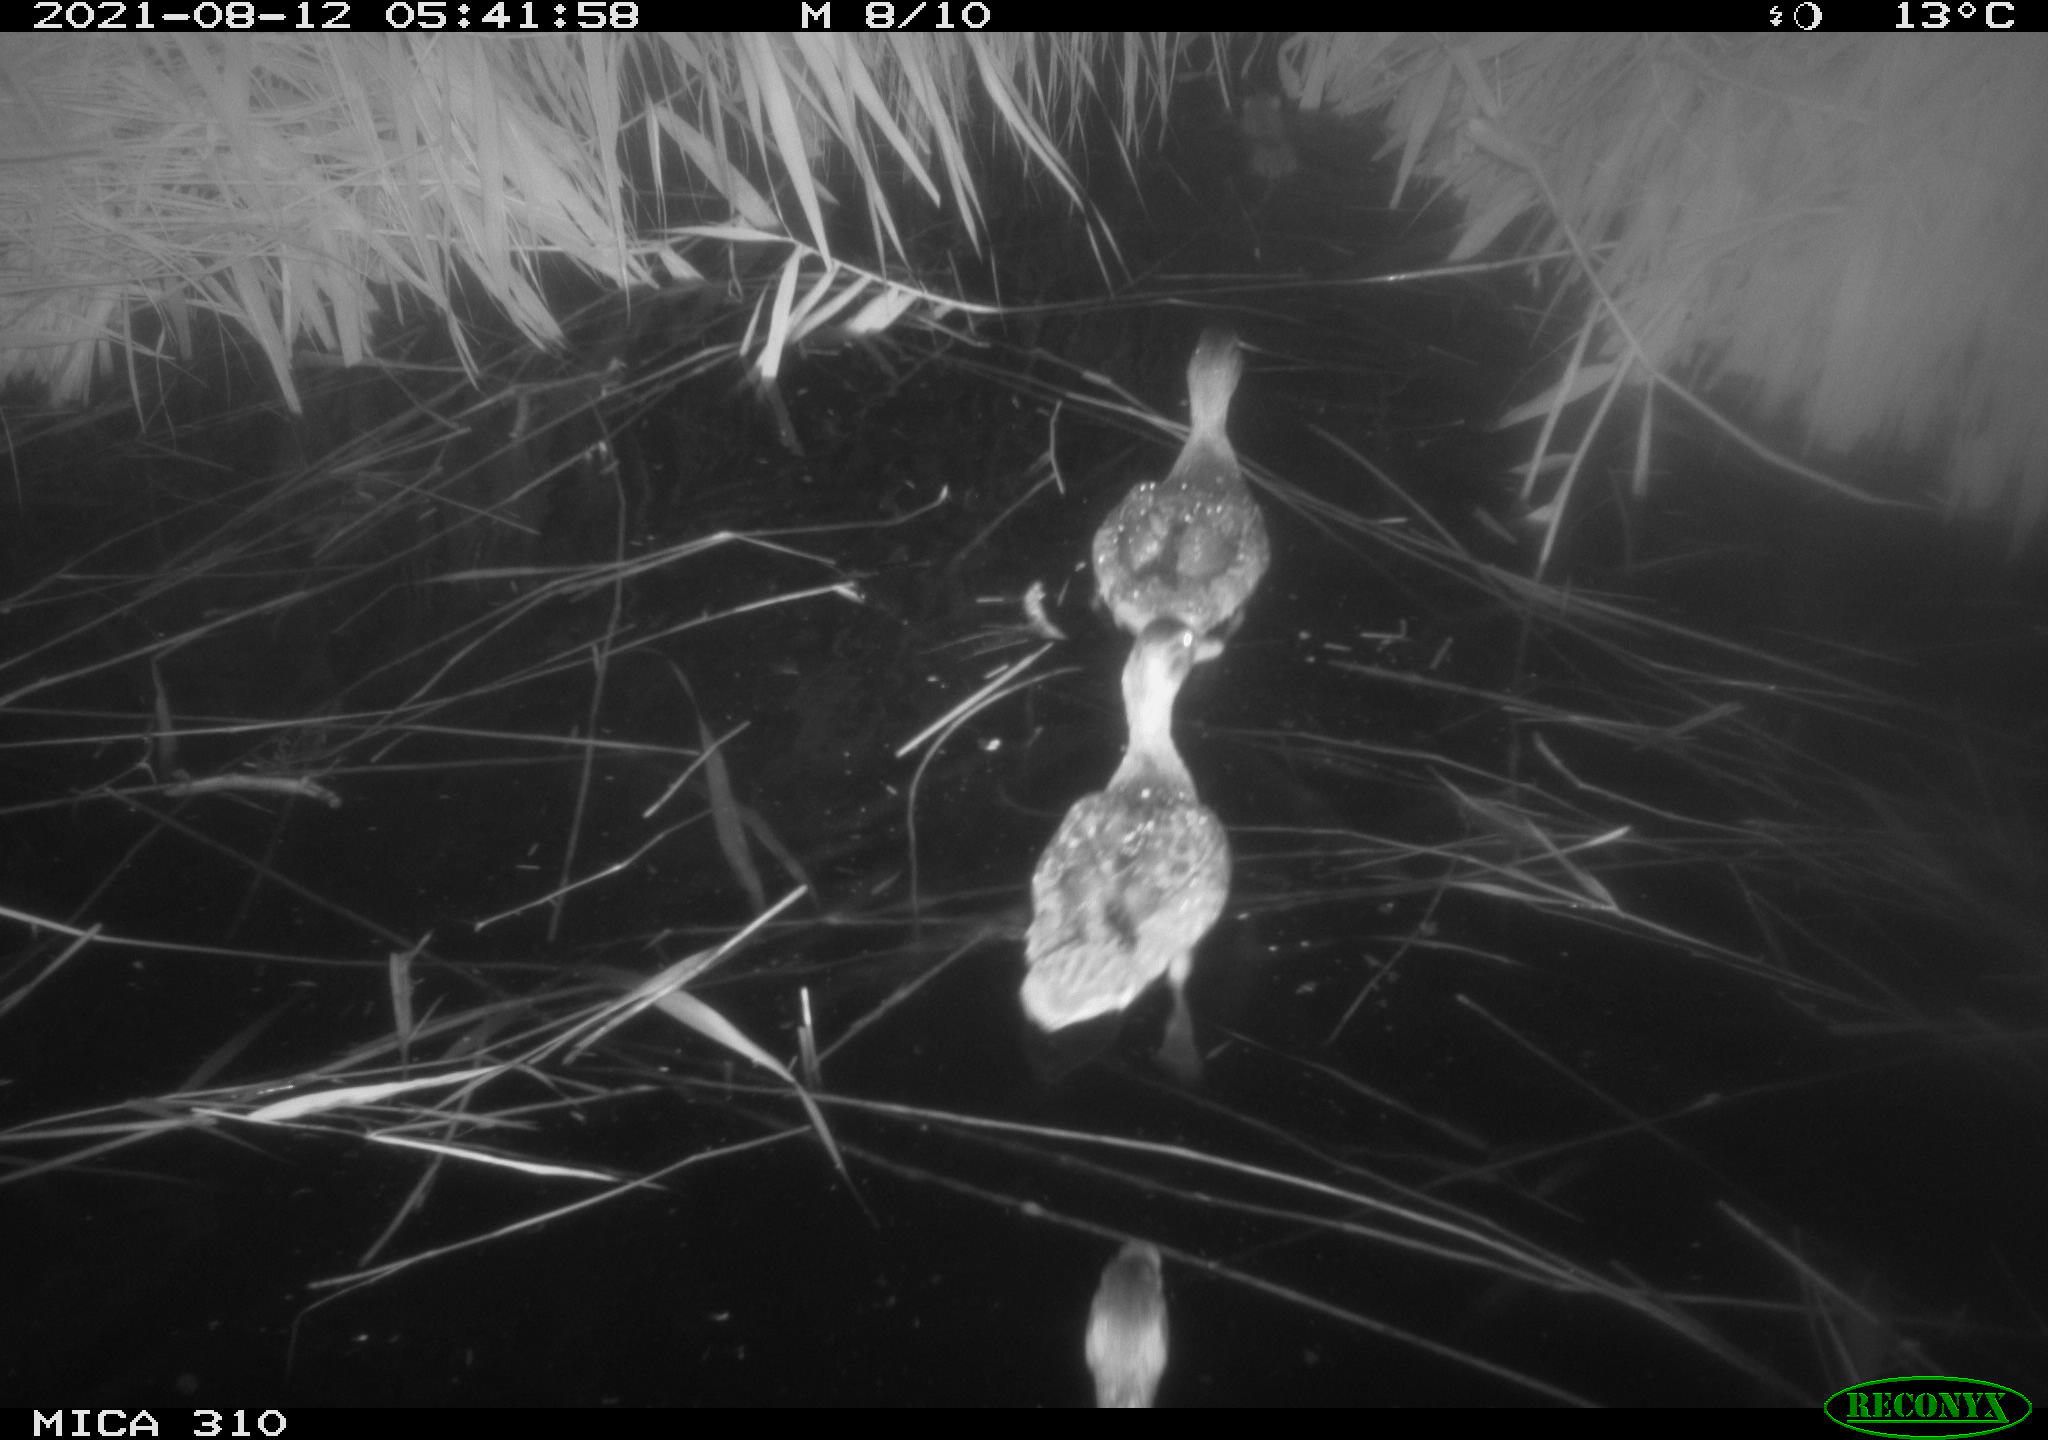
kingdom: Animalia
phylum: Chordata
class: Aves
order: Anseriformes
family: Anatidae
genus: Anas
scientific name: Anas platyrhynchos
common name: Mallard
